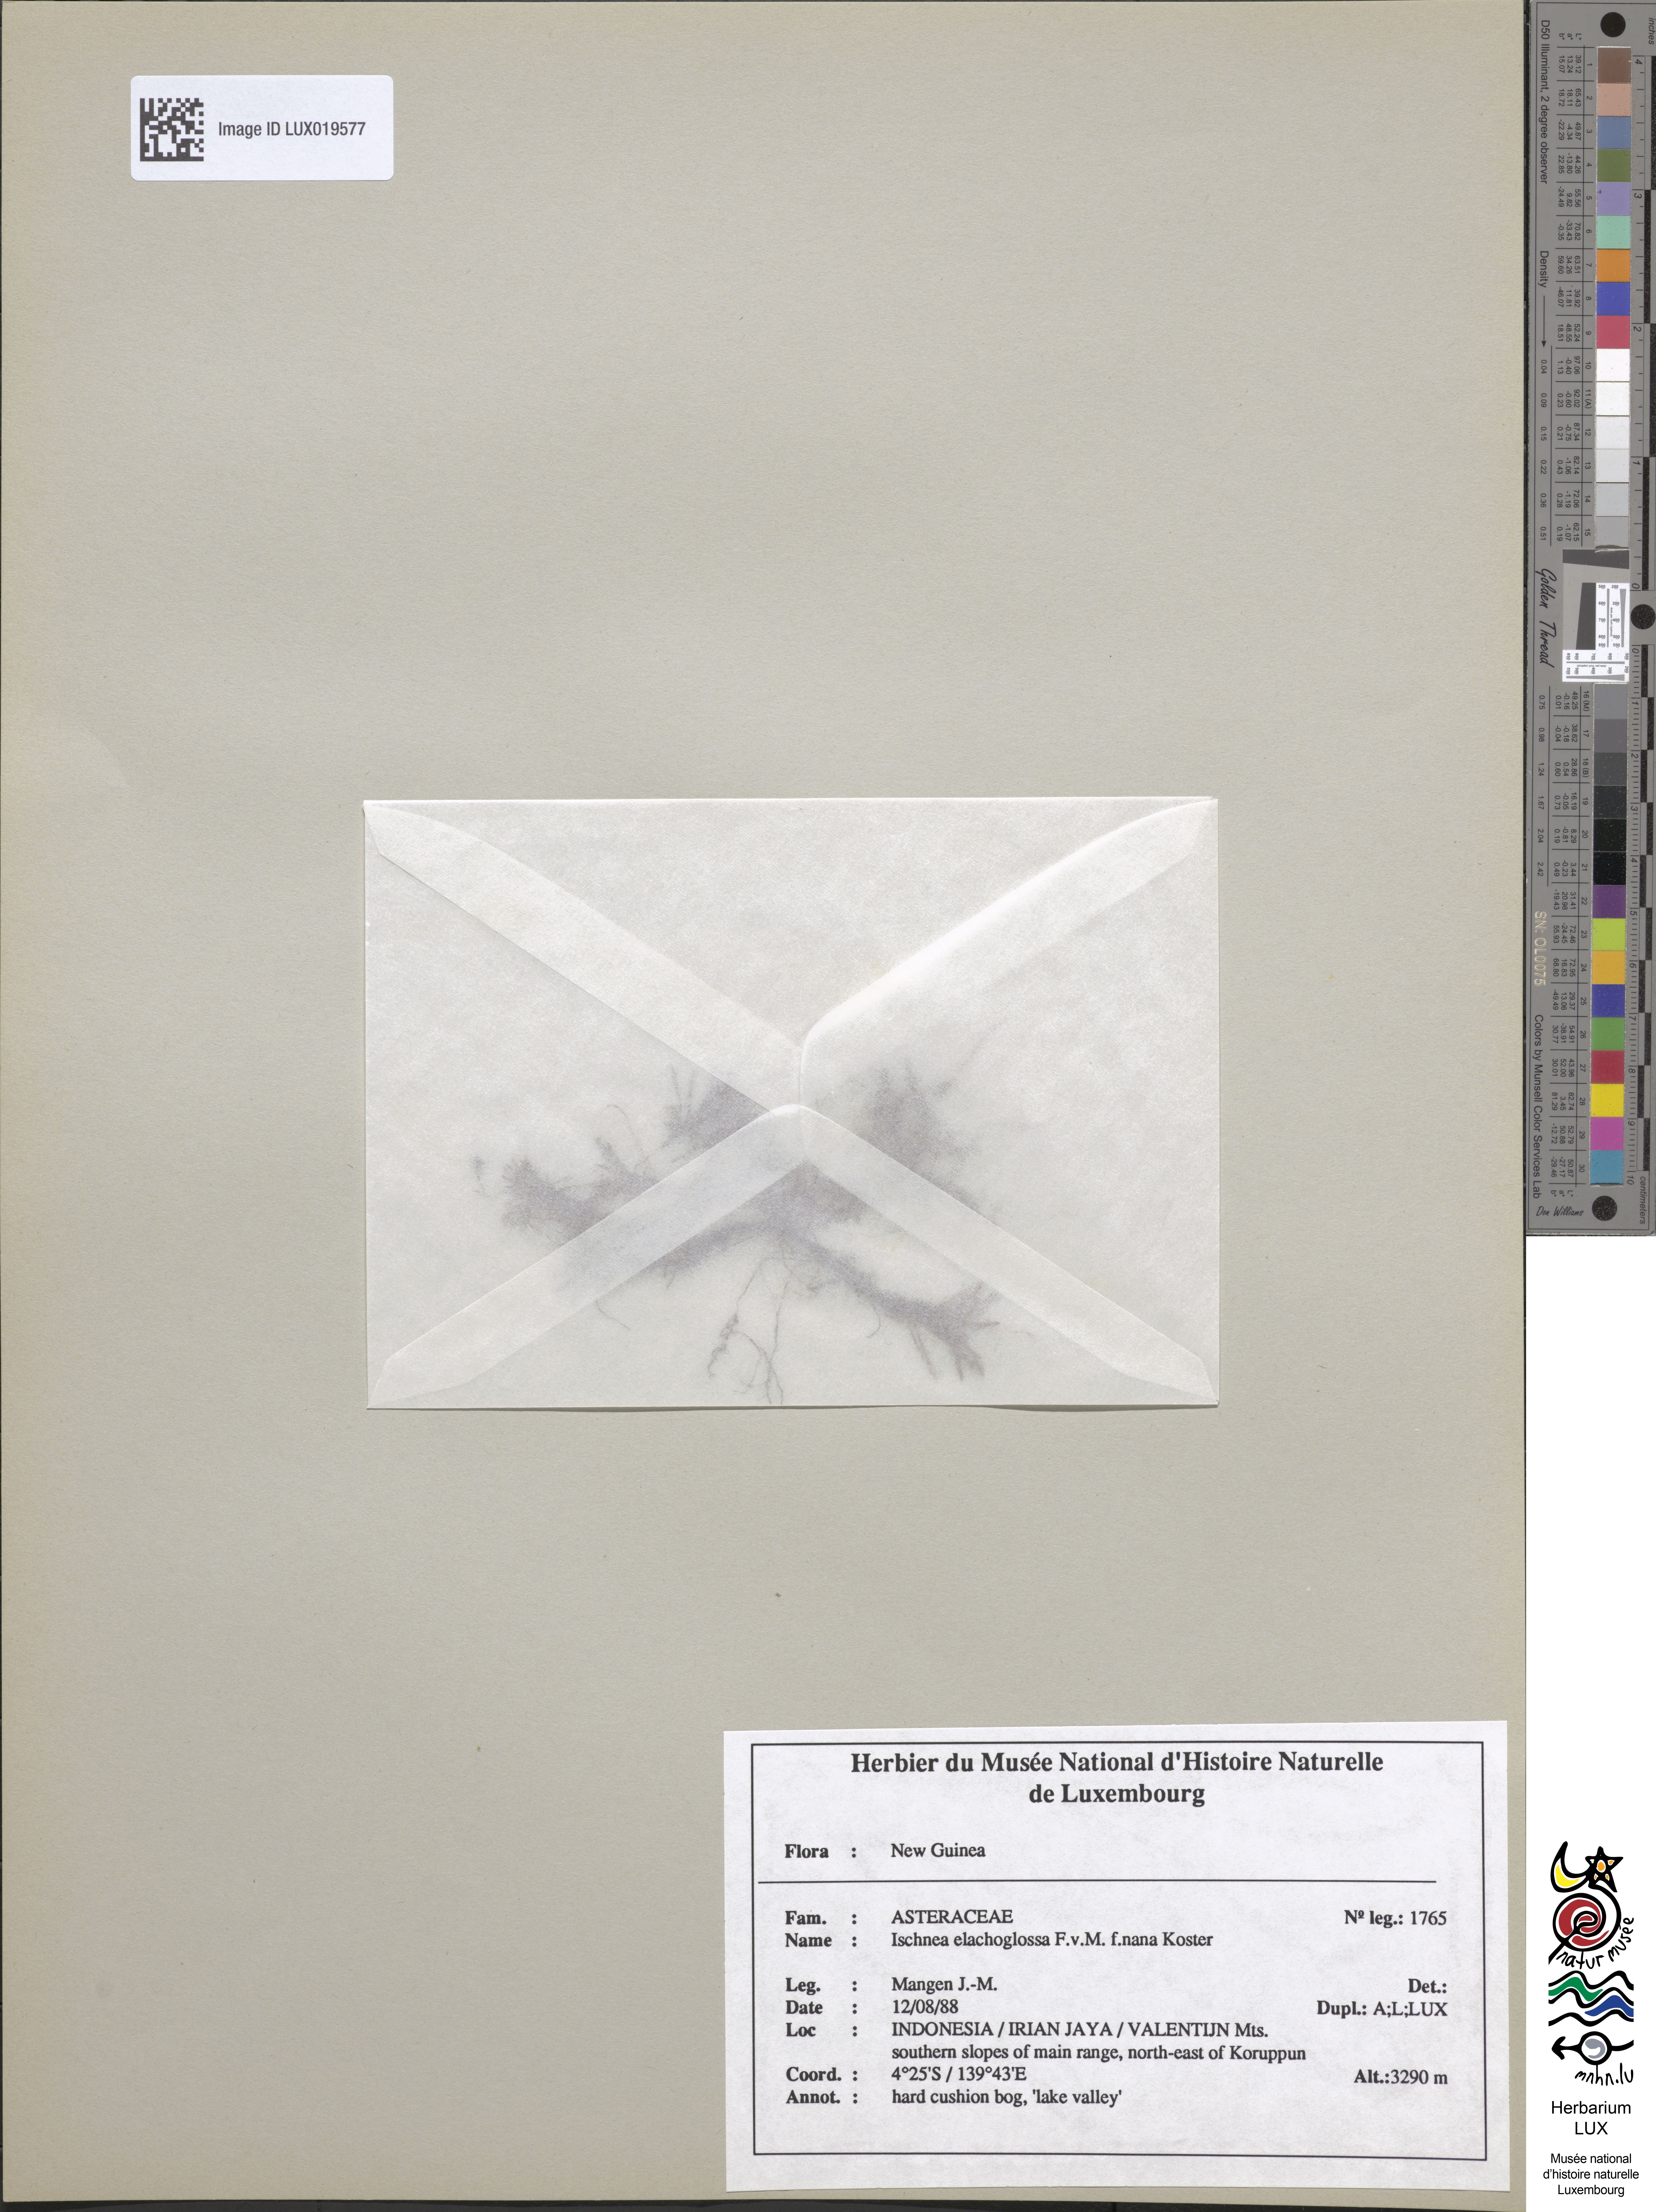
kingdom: Plantae
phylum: Tracheophyta
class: Magnoliopsida
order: Asterales
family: Asteraceae
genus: Ischnea
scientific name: Ischnea elachoglossa
